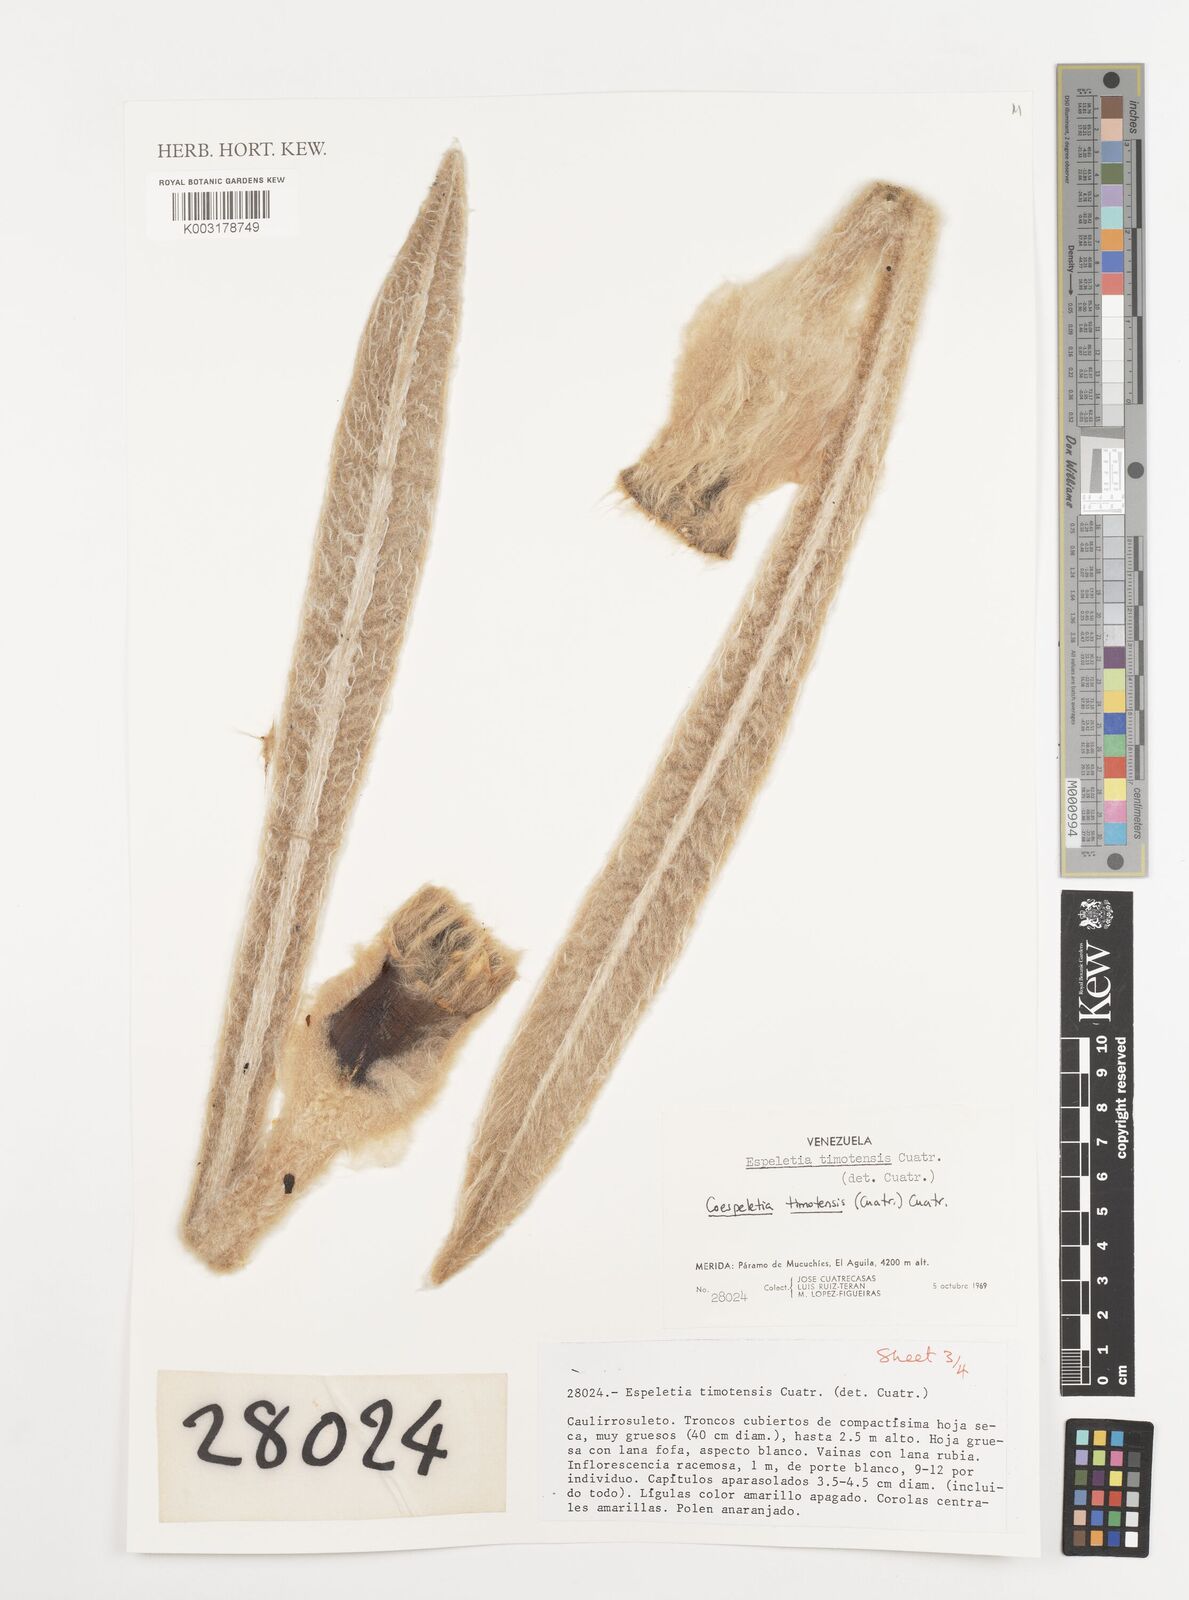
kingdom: Plantae
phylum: Tracheophyta
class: Magnoliopsida
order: Asterales
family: Asteraceae
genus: Espeletia
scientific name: Espeletia timotensis
